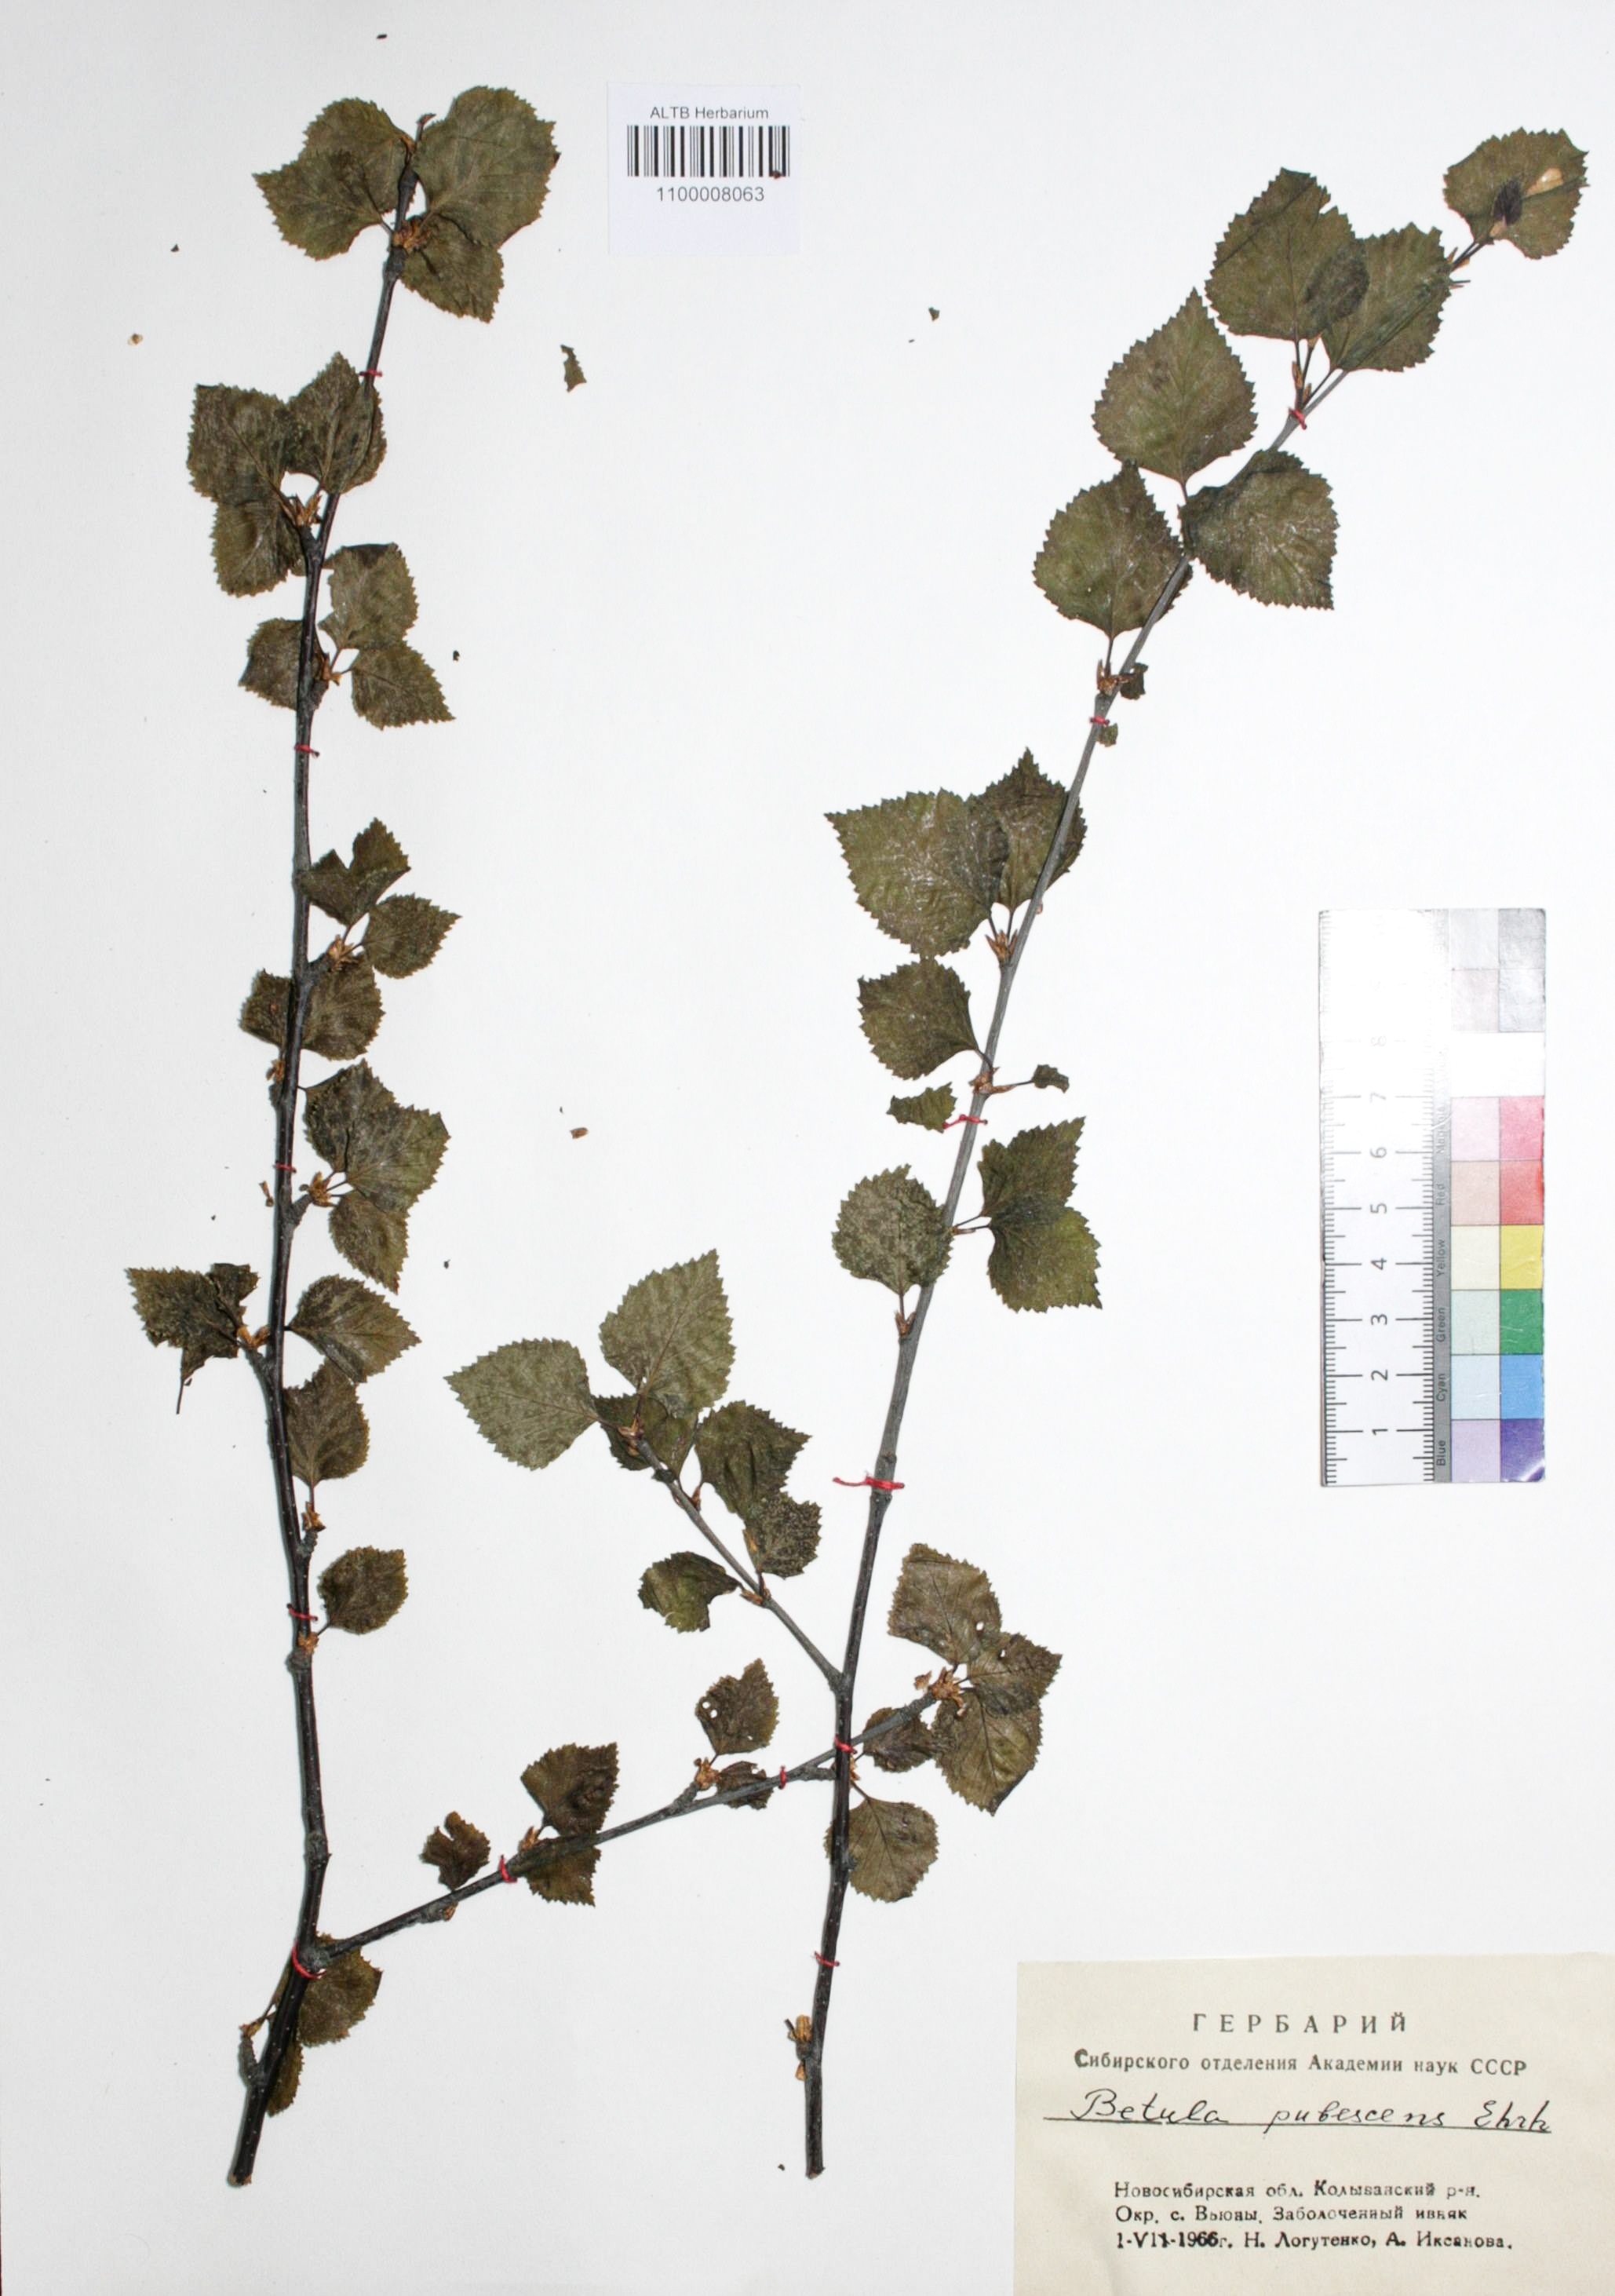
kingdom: Plantae
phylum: Tracheophyta
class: Magnoliopsida
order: Fagales
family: Betulaceae
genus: Betula
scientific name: Betula pubescens
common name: Downy birch
